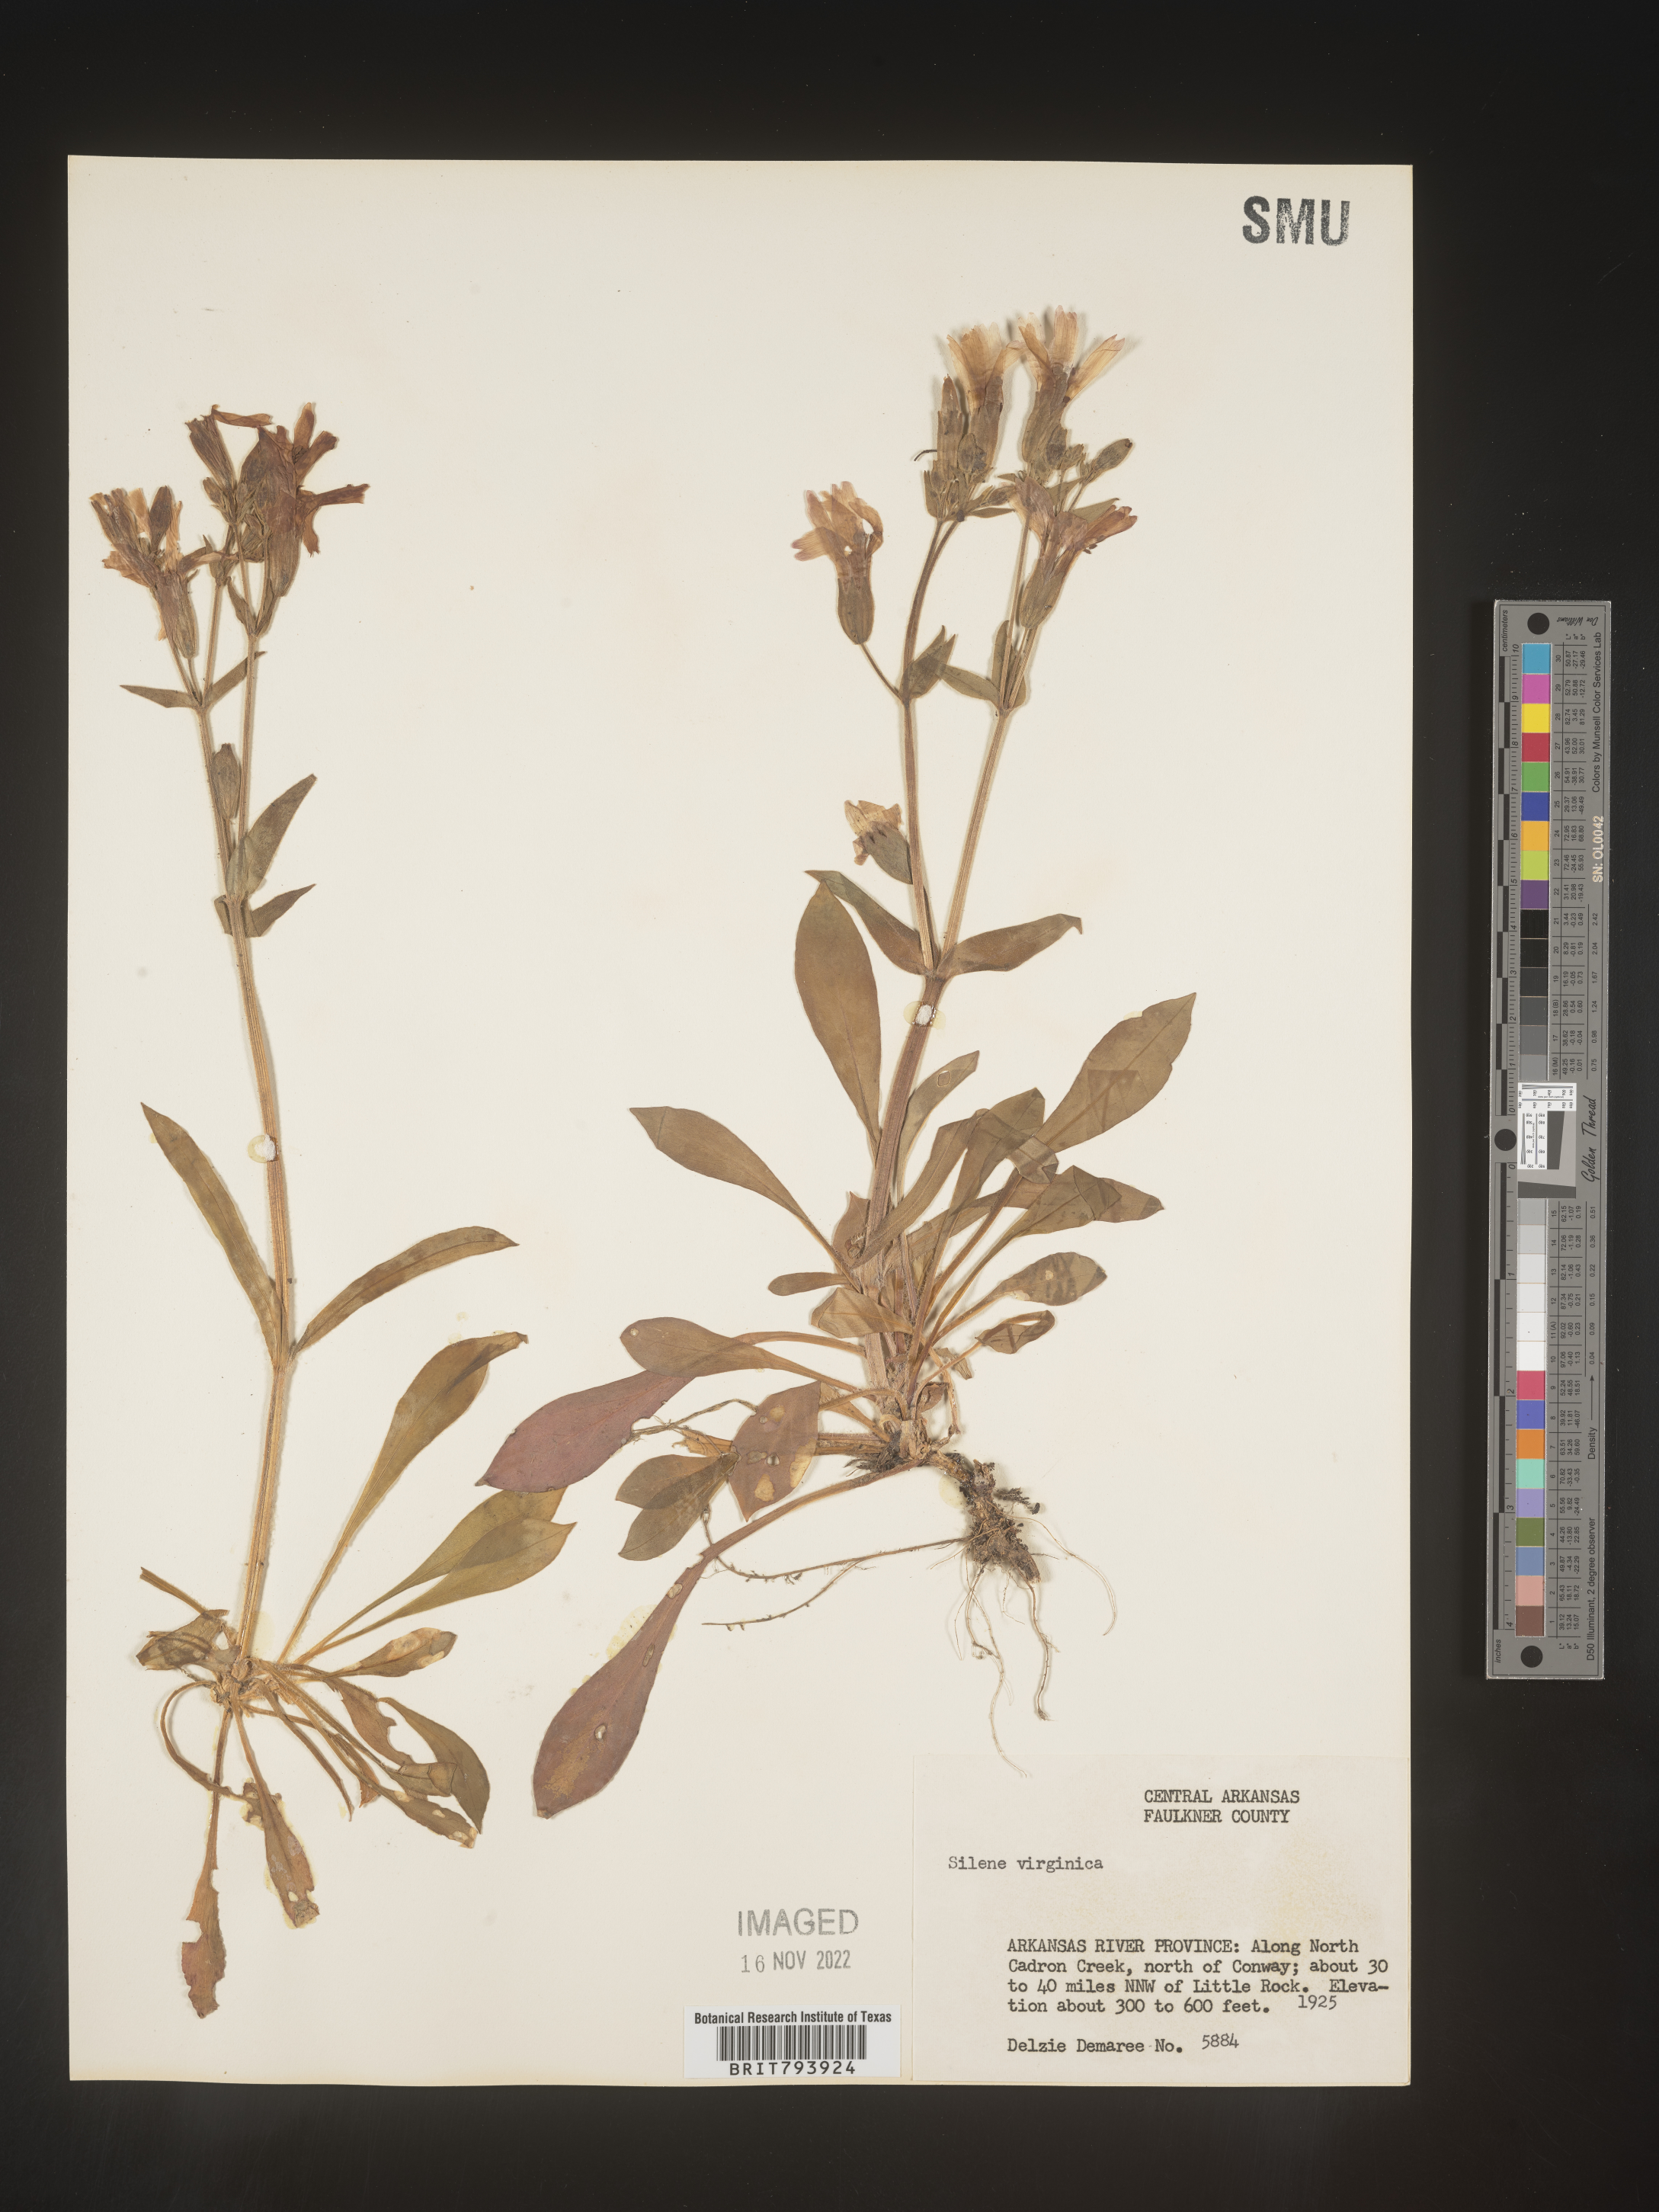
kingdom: Plantae
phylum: Tracheophyta
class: Magnoliopsida
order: Caryophyllales
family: Caryophyllaceae
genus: Silene
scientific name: Silene virginica
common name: Fire-pink
